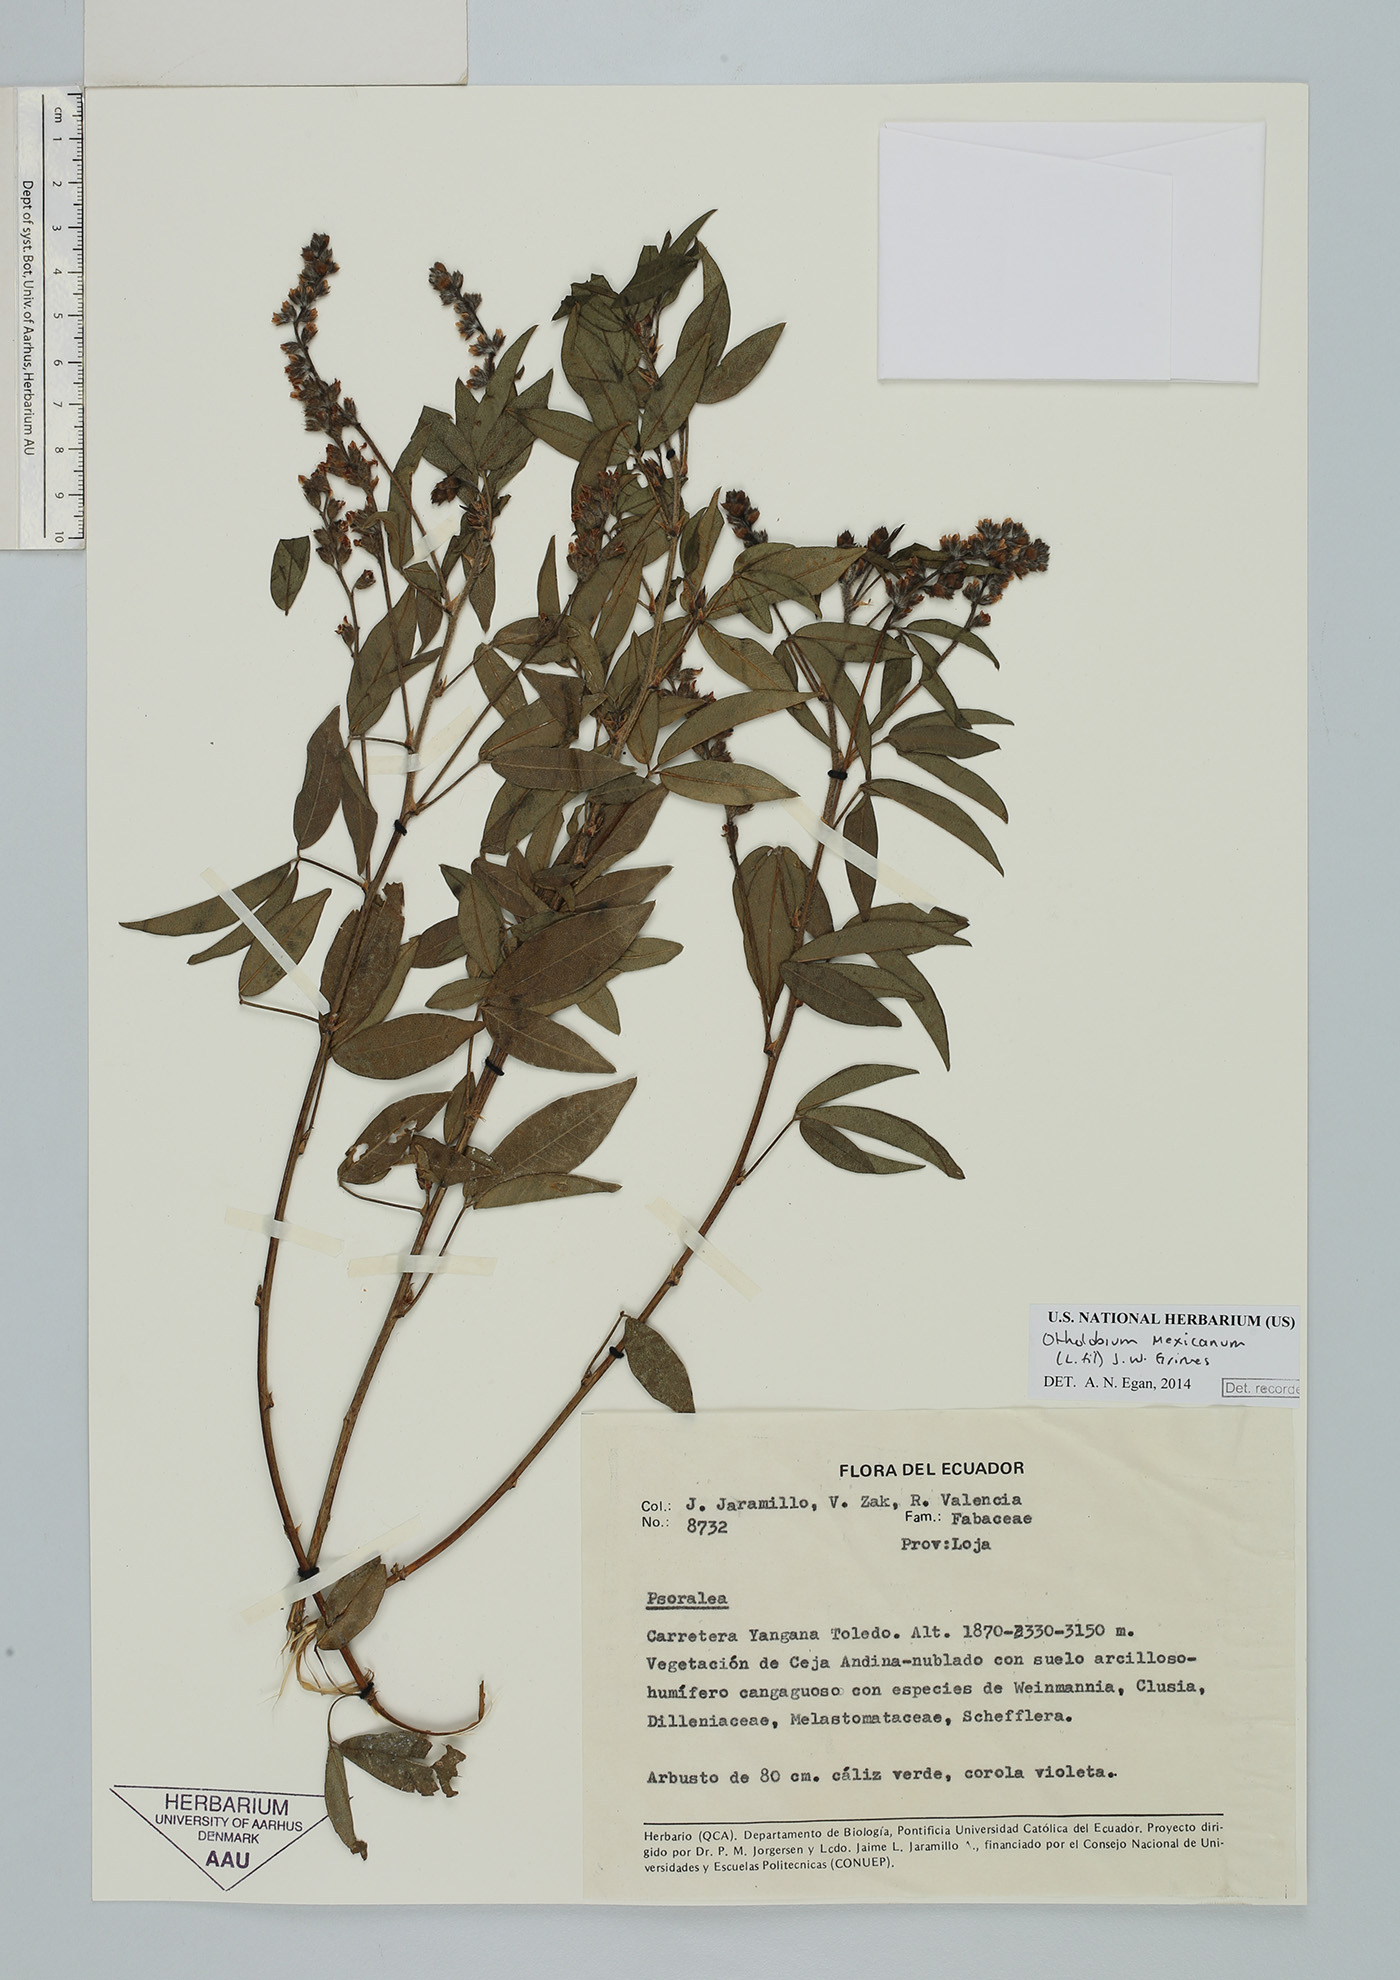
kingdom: Plantae
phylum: Tracheophyta
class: Magnoliopsida
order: Fabales
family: Fabaceae
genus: Psoralea
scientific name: Psoralea Otholobium mexicanum
